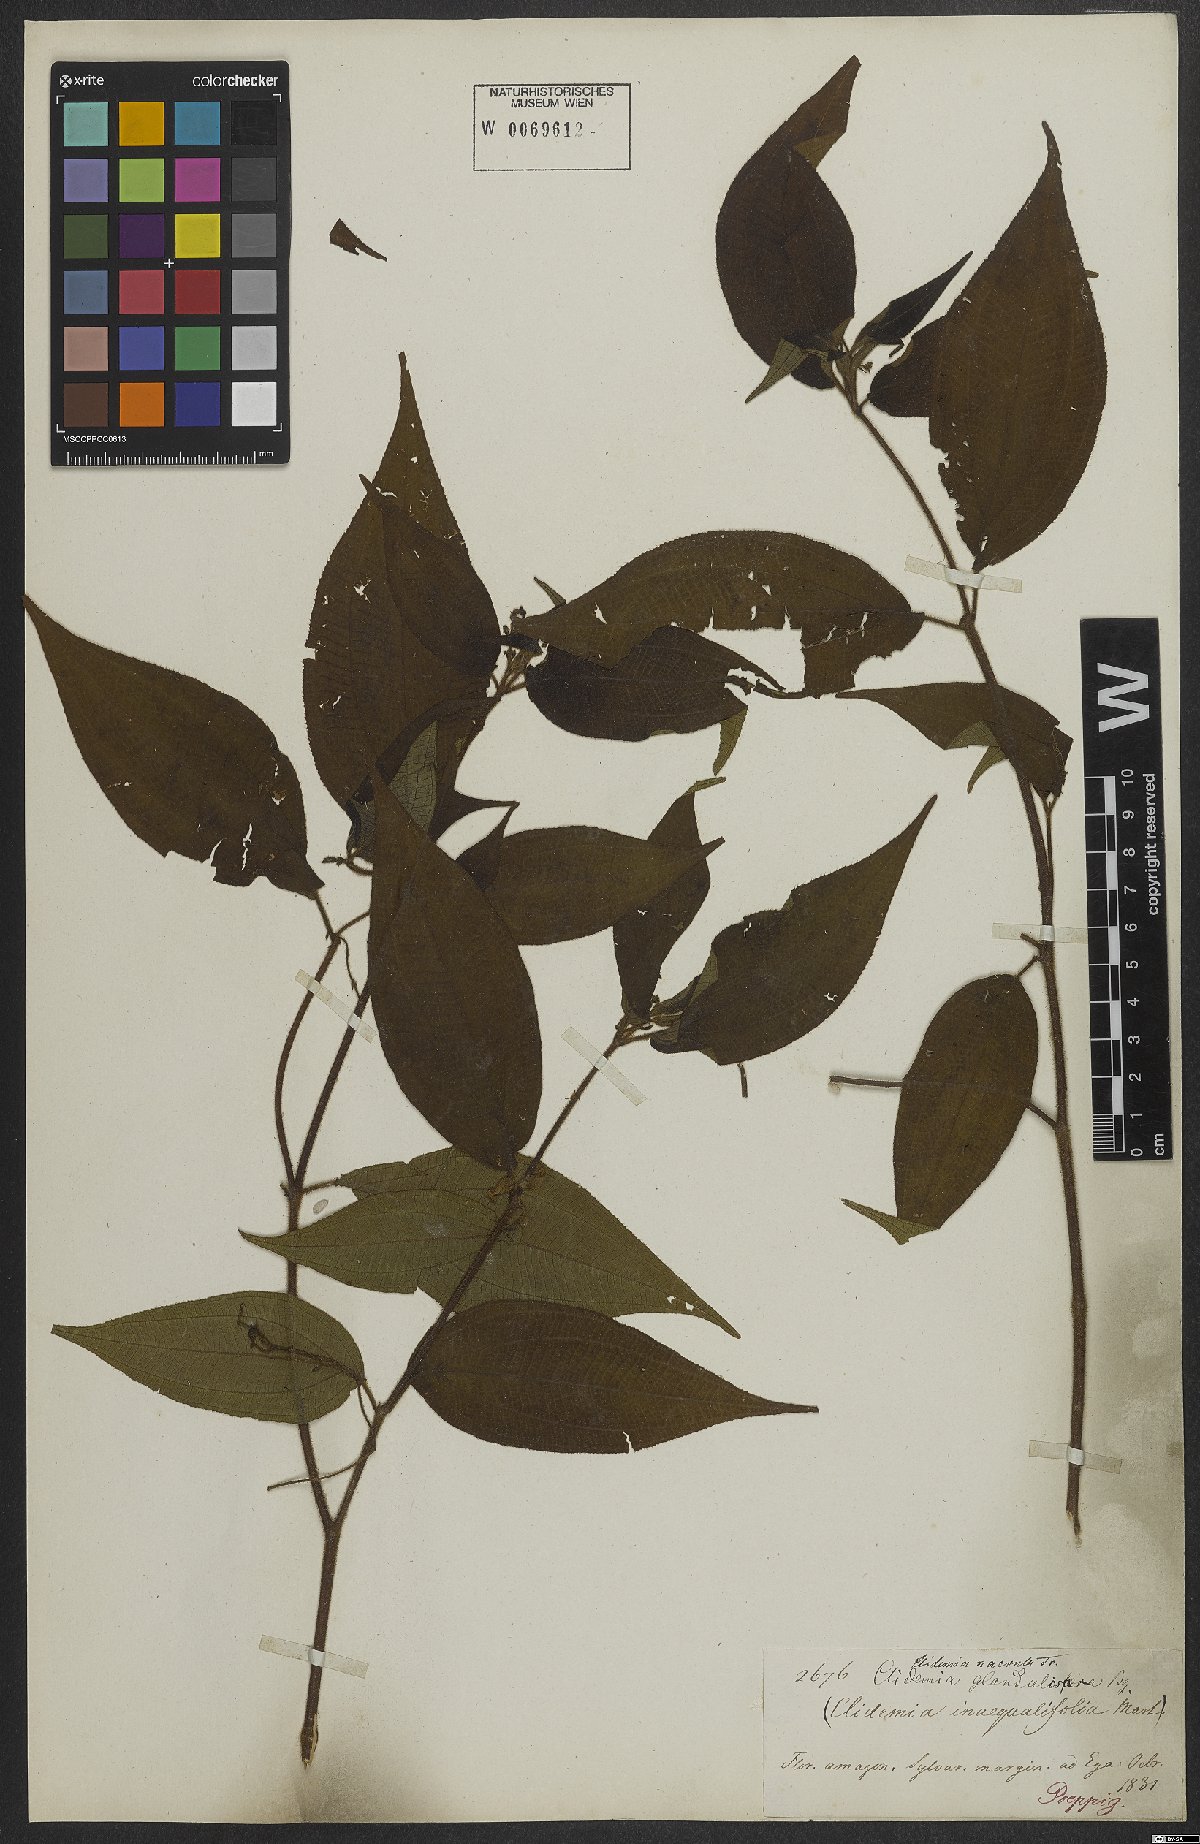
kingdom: Plantae
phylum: Tracheophyta
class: Magnoliopsida
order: Myrtales
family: Melastomataceae
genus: Miconia
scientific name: Miconia heteroclita
